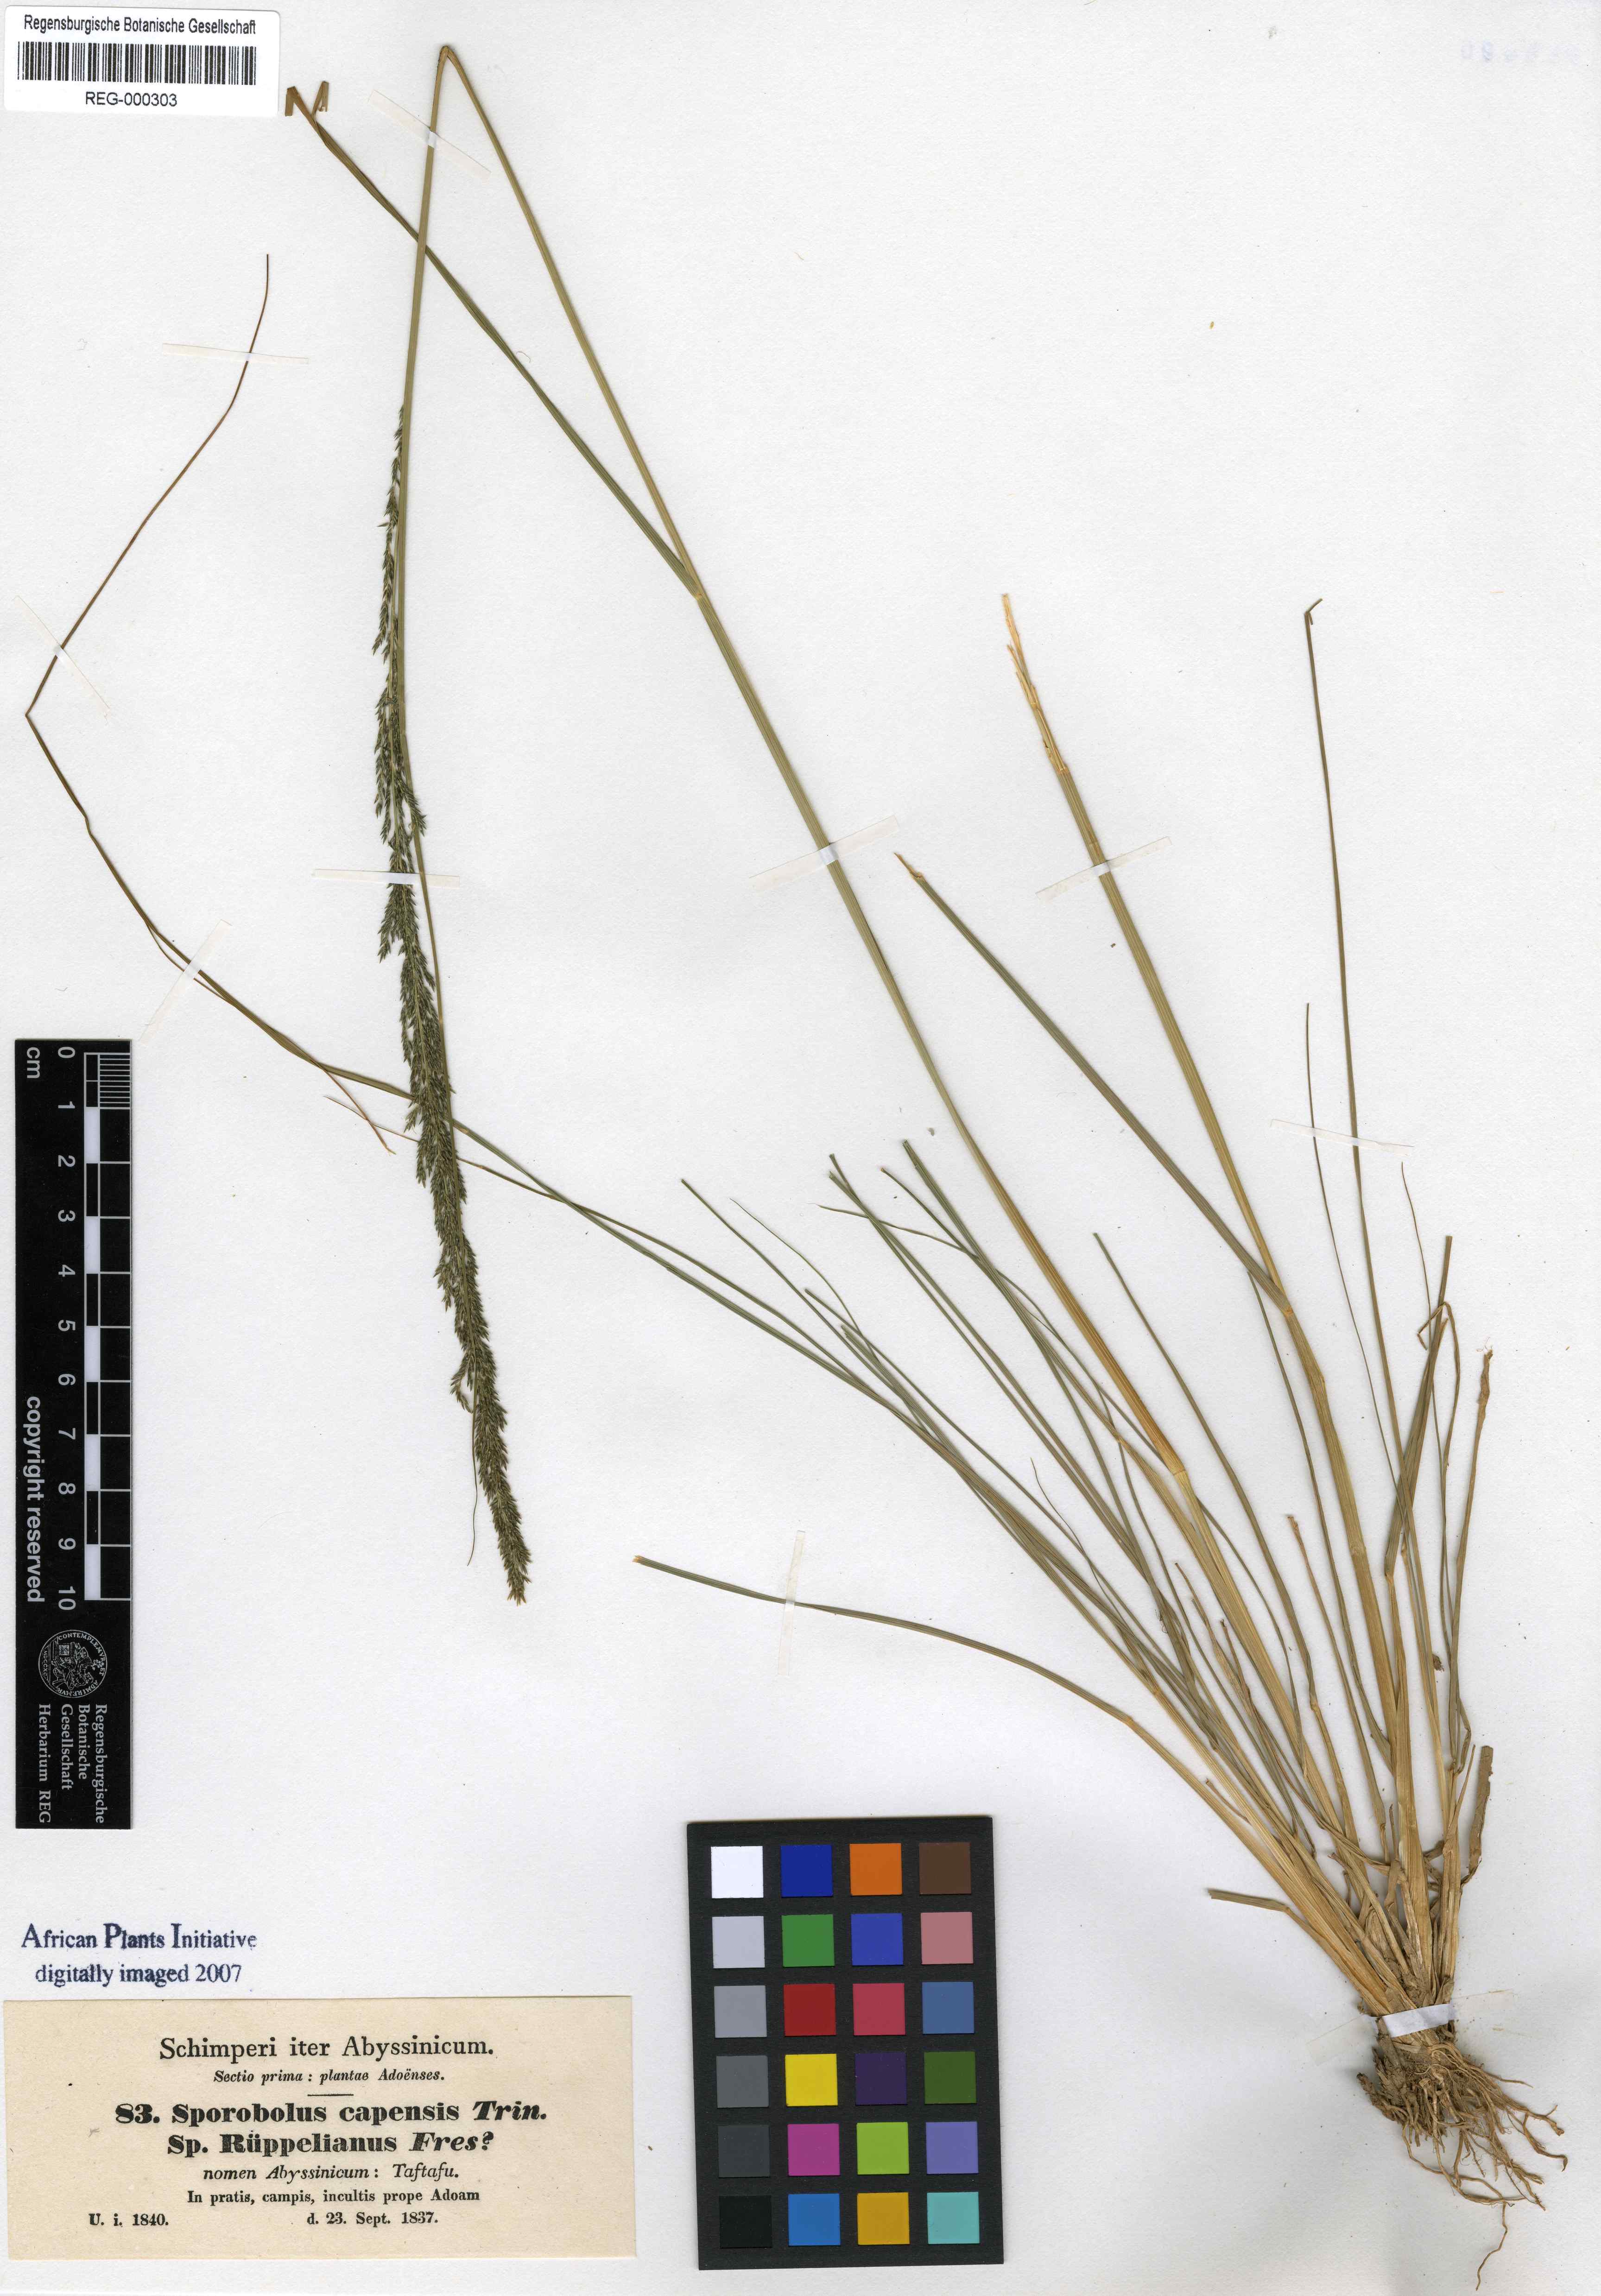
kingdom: Plantae
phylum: Tracheophyta
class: Liliopsida
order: Poales
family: Poaceae
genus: Sporobolus
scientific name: Sporobolus africanus
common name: African dropseed
